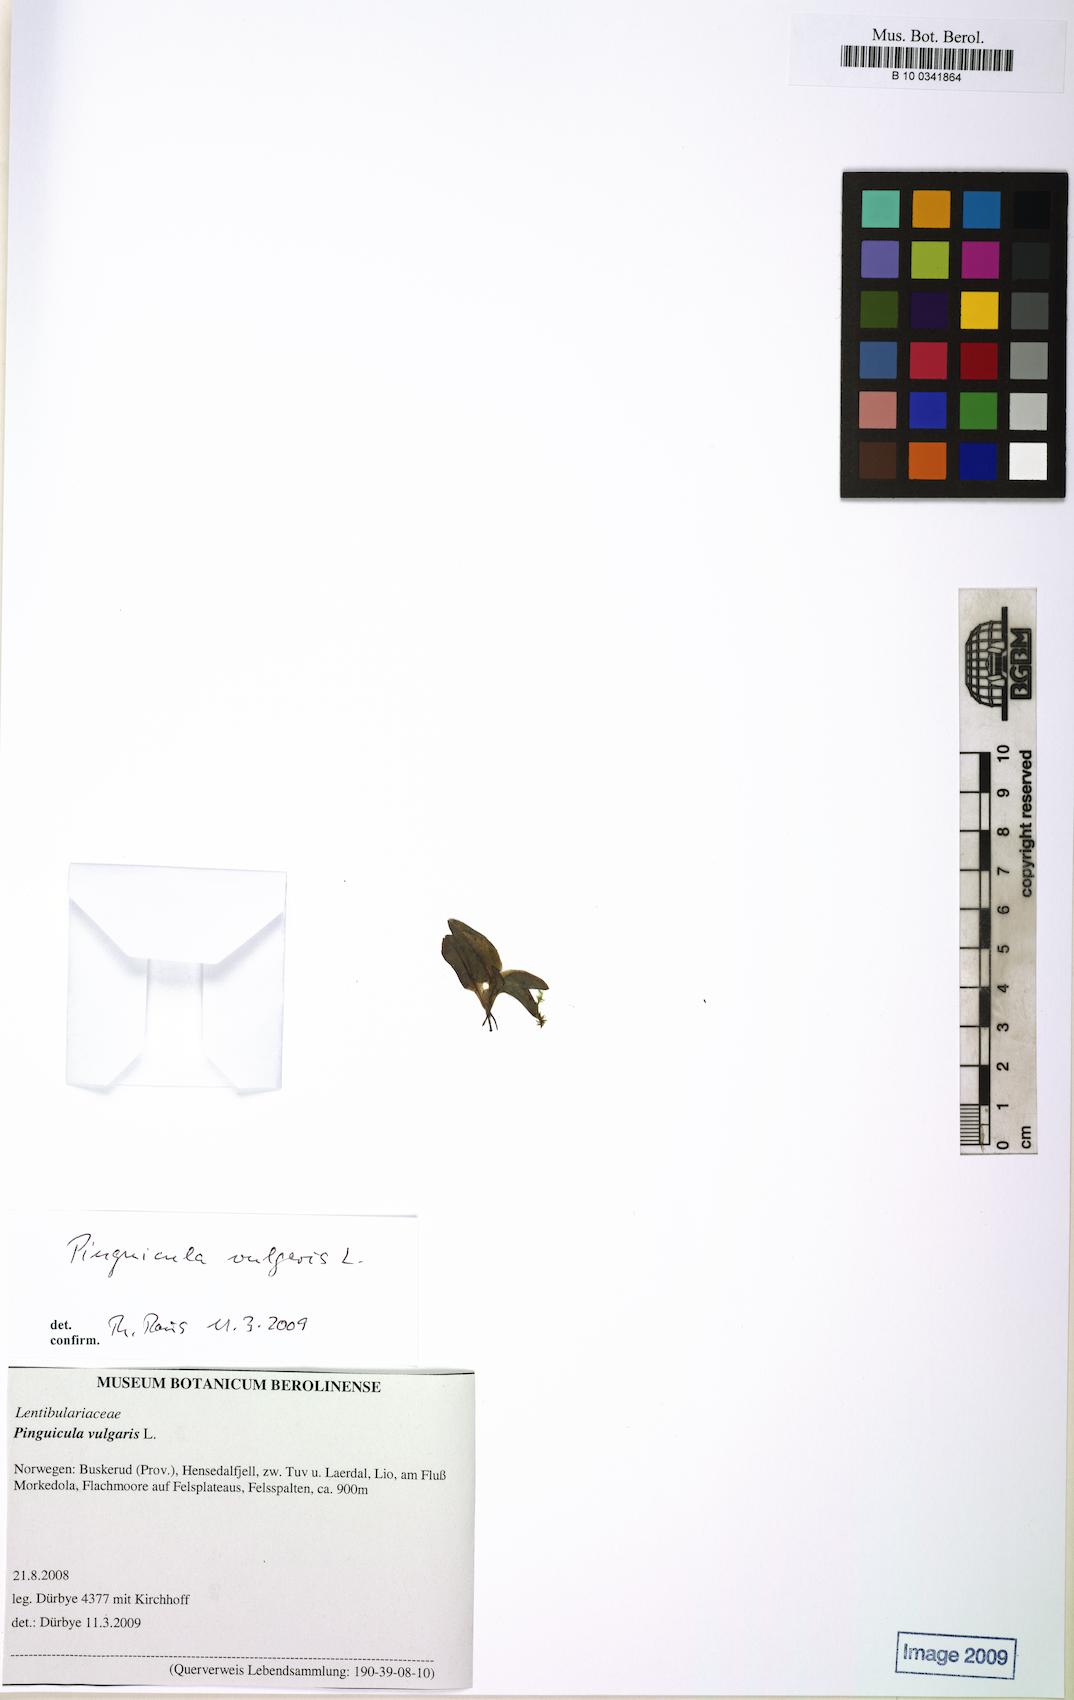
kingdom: Plantae
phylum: Tracheophyta
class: Magnoliopsida
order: Lamiales
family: Lentibulariaceae
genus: Pinguicula
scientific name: Pinguicula vulgaris
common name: Common butterwort
